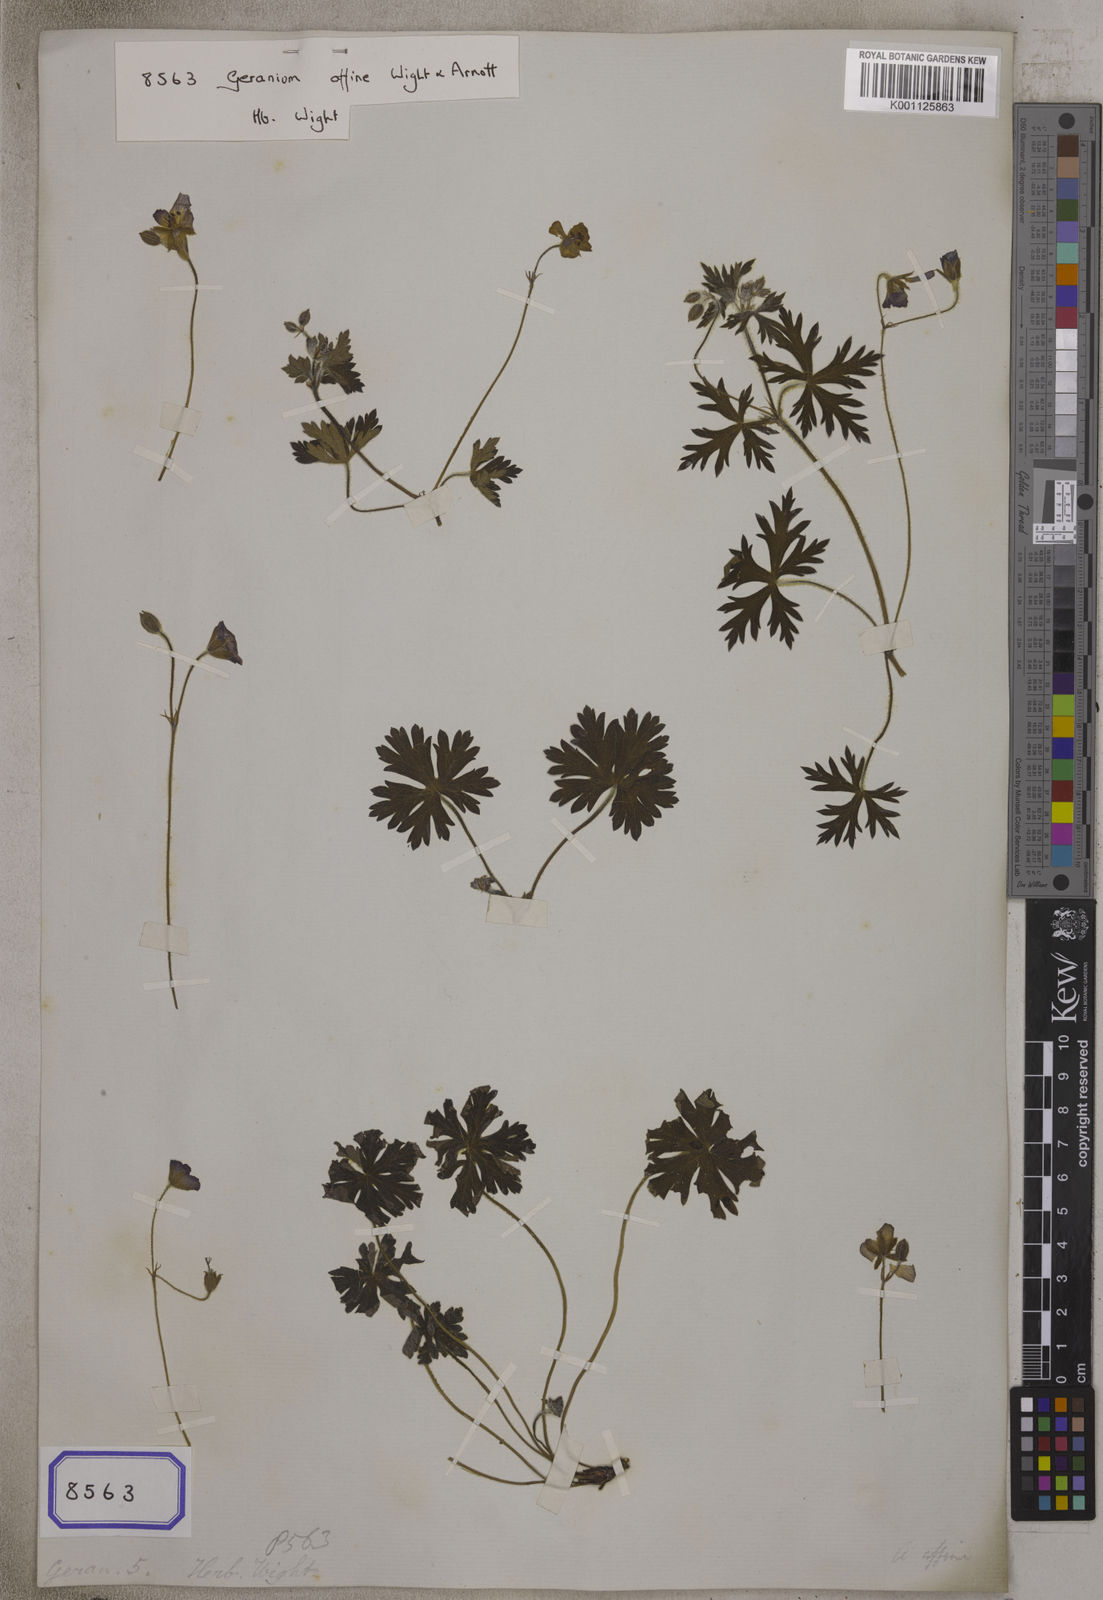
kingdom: Plantae
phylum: Tracheophyta
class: Magnoliopsida
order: Geraniales
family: Geraniaceae
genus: Geranium
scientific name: Geranium arnottianum
